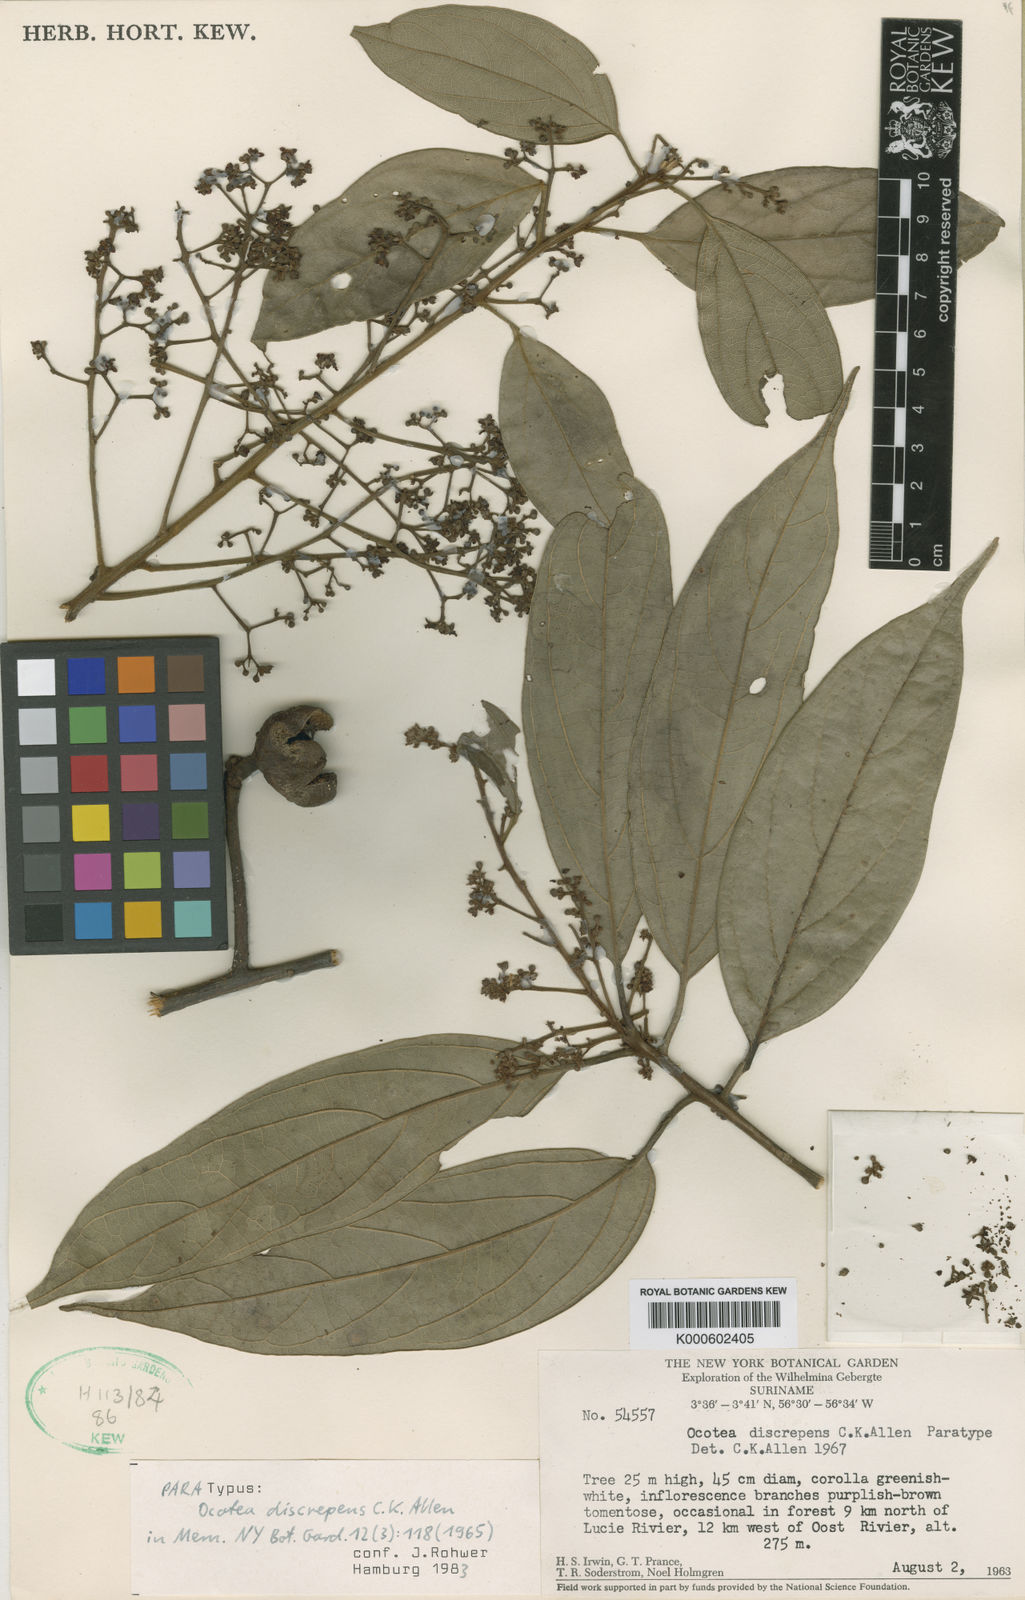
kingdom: Plantae
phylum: Tracheophyta
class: Magnoliopsida
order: Laurales
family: Lauraceae
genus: Ocotea
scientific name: Ocotea discrepens
